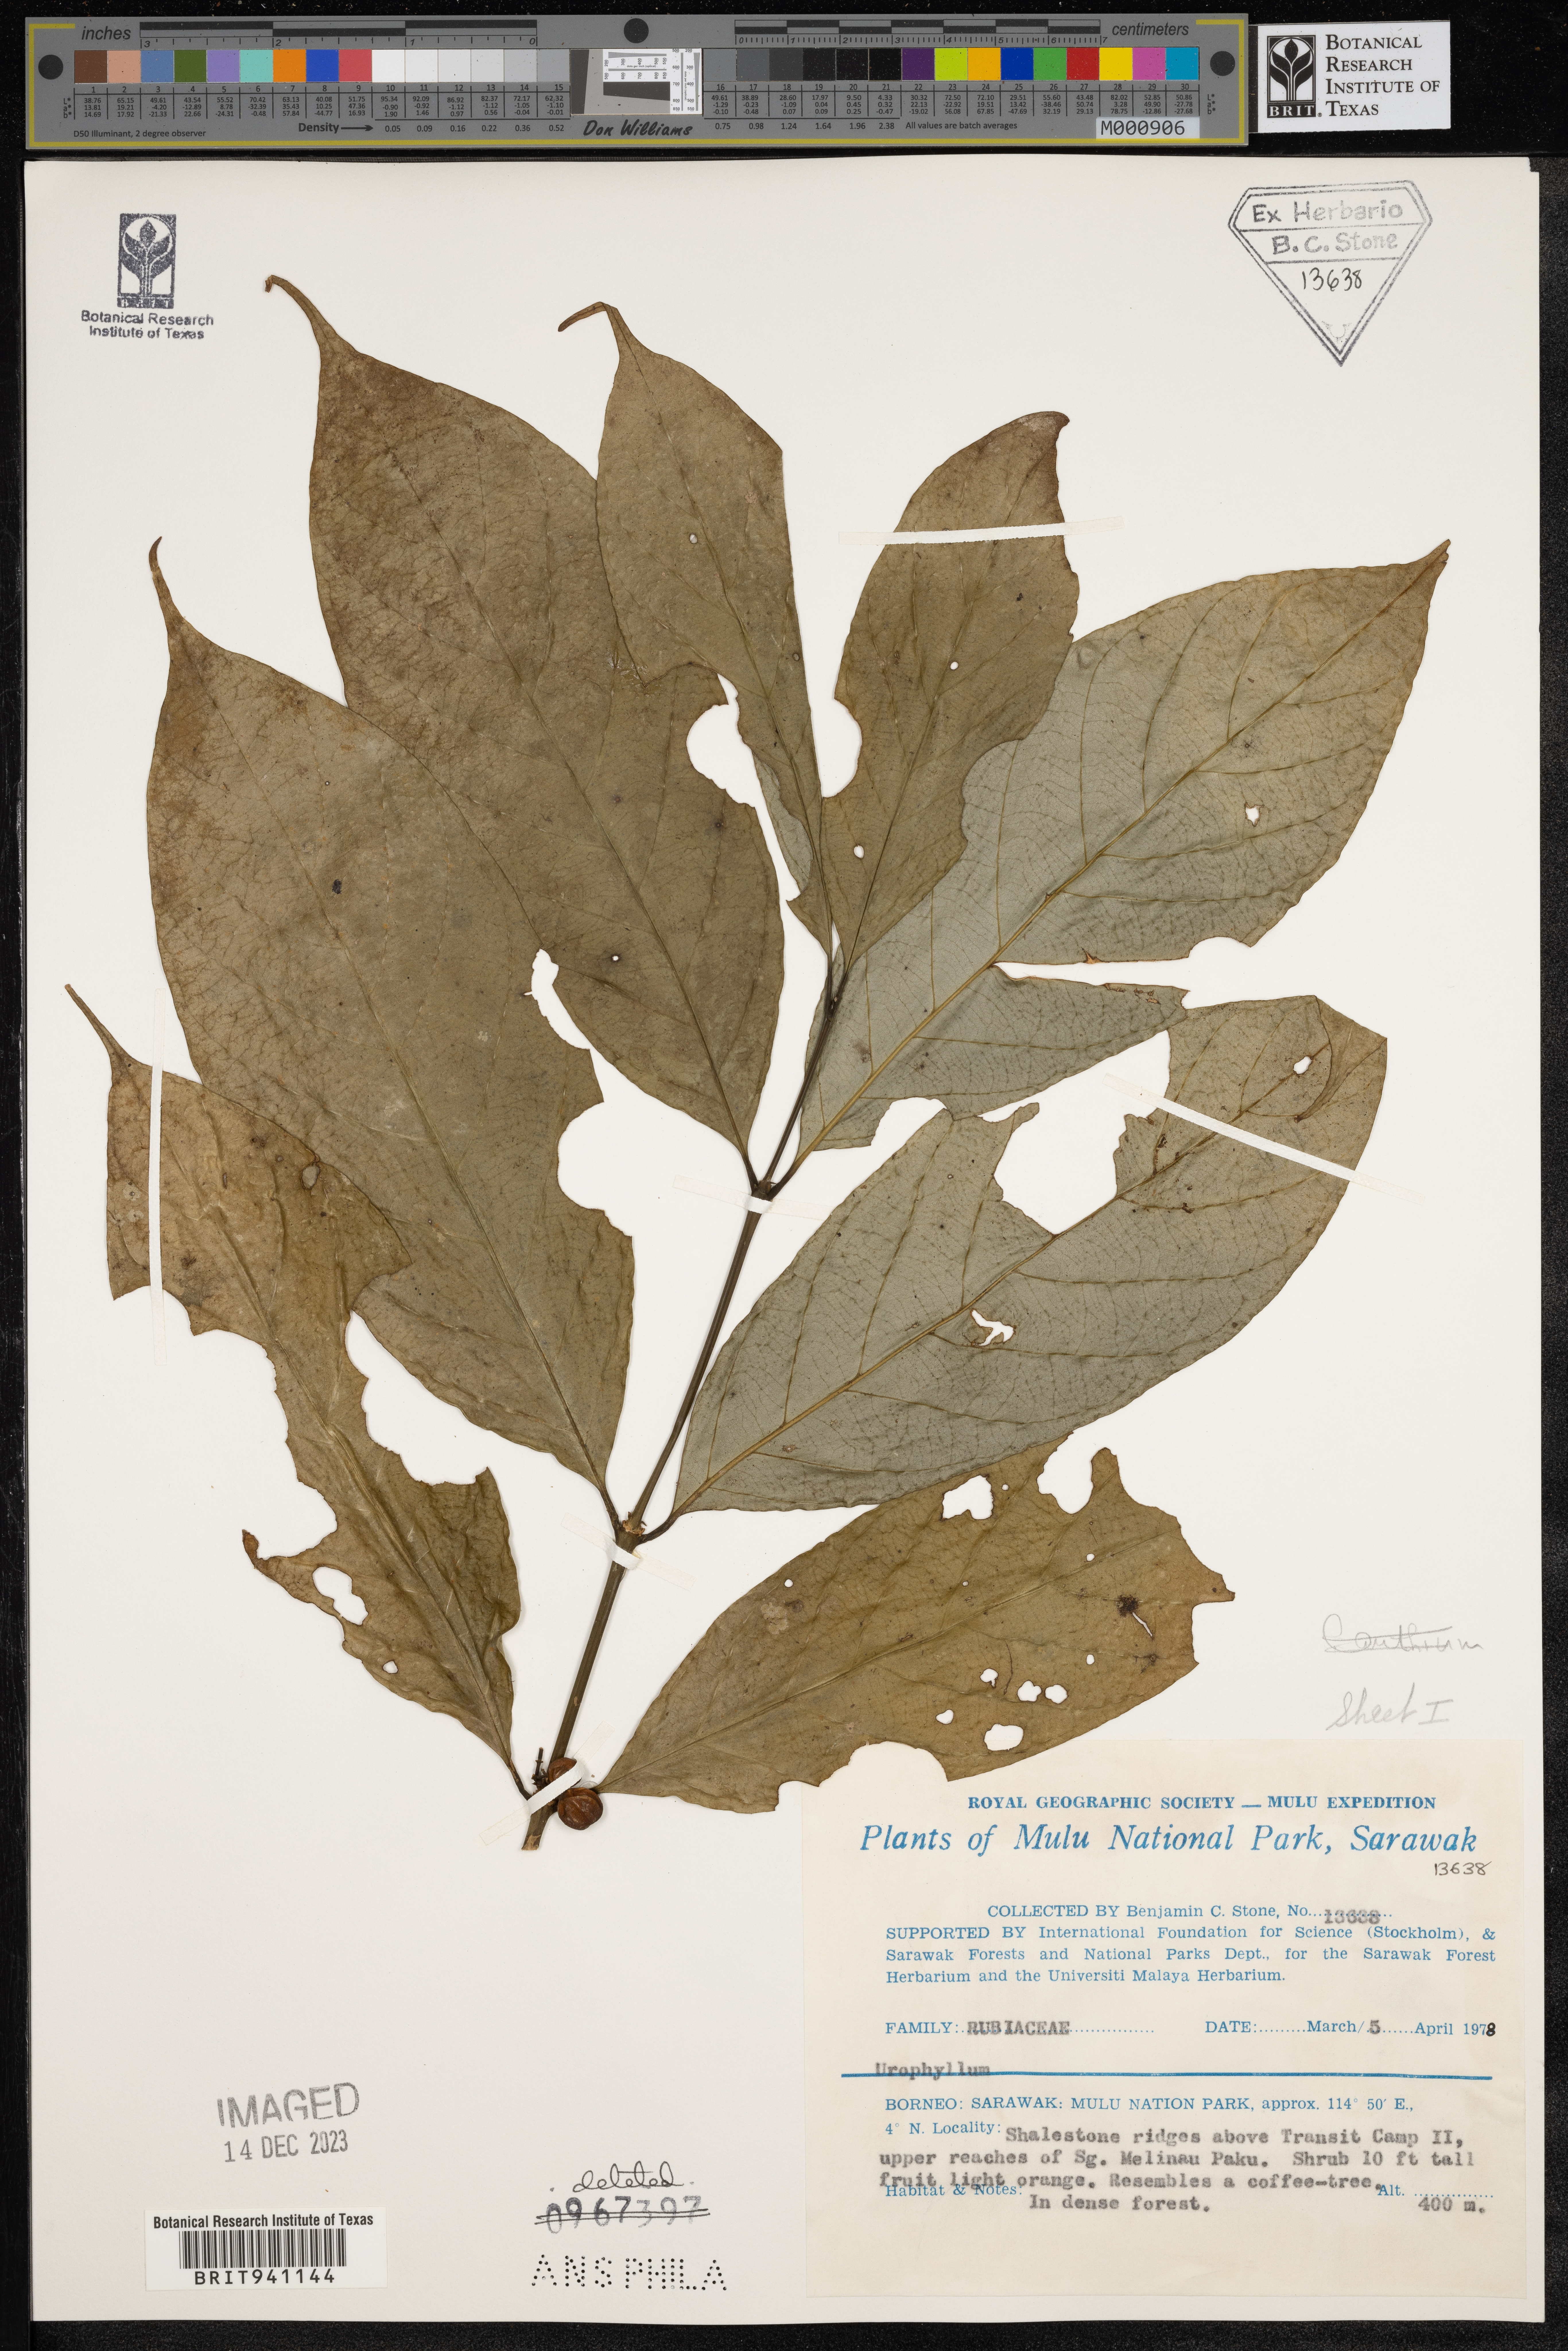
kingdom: Plantae
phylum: Tracheophyta
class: Magnoliopsida
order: Gentianales
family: Rubiaceae
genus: Urophyllum
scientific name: Urophyllum
